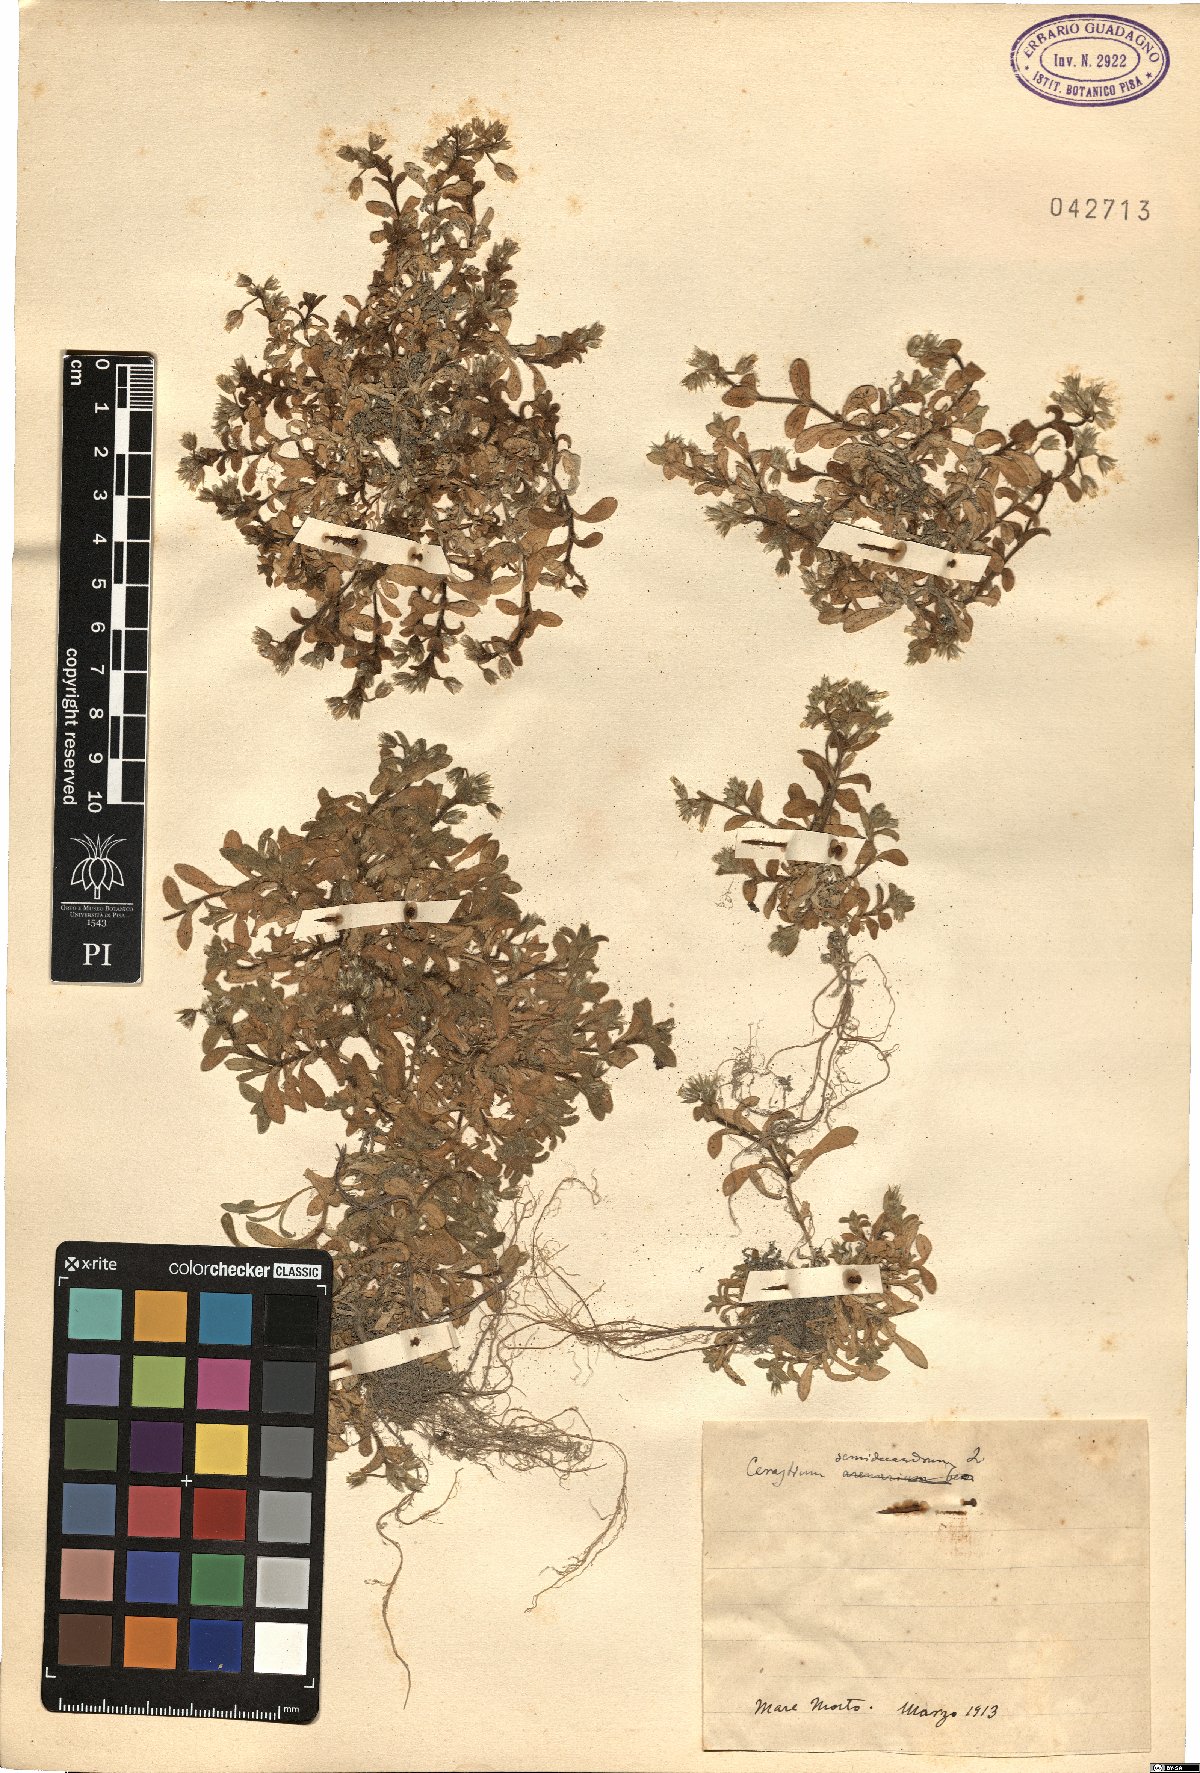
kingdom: Plantae
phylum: Tracheophyta
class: Magnoliopsida
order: Caryophyllales
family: Caryophyllaceae
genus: Cerastium
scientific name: Cerastium semidecandrum
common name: Little mouse-ear
